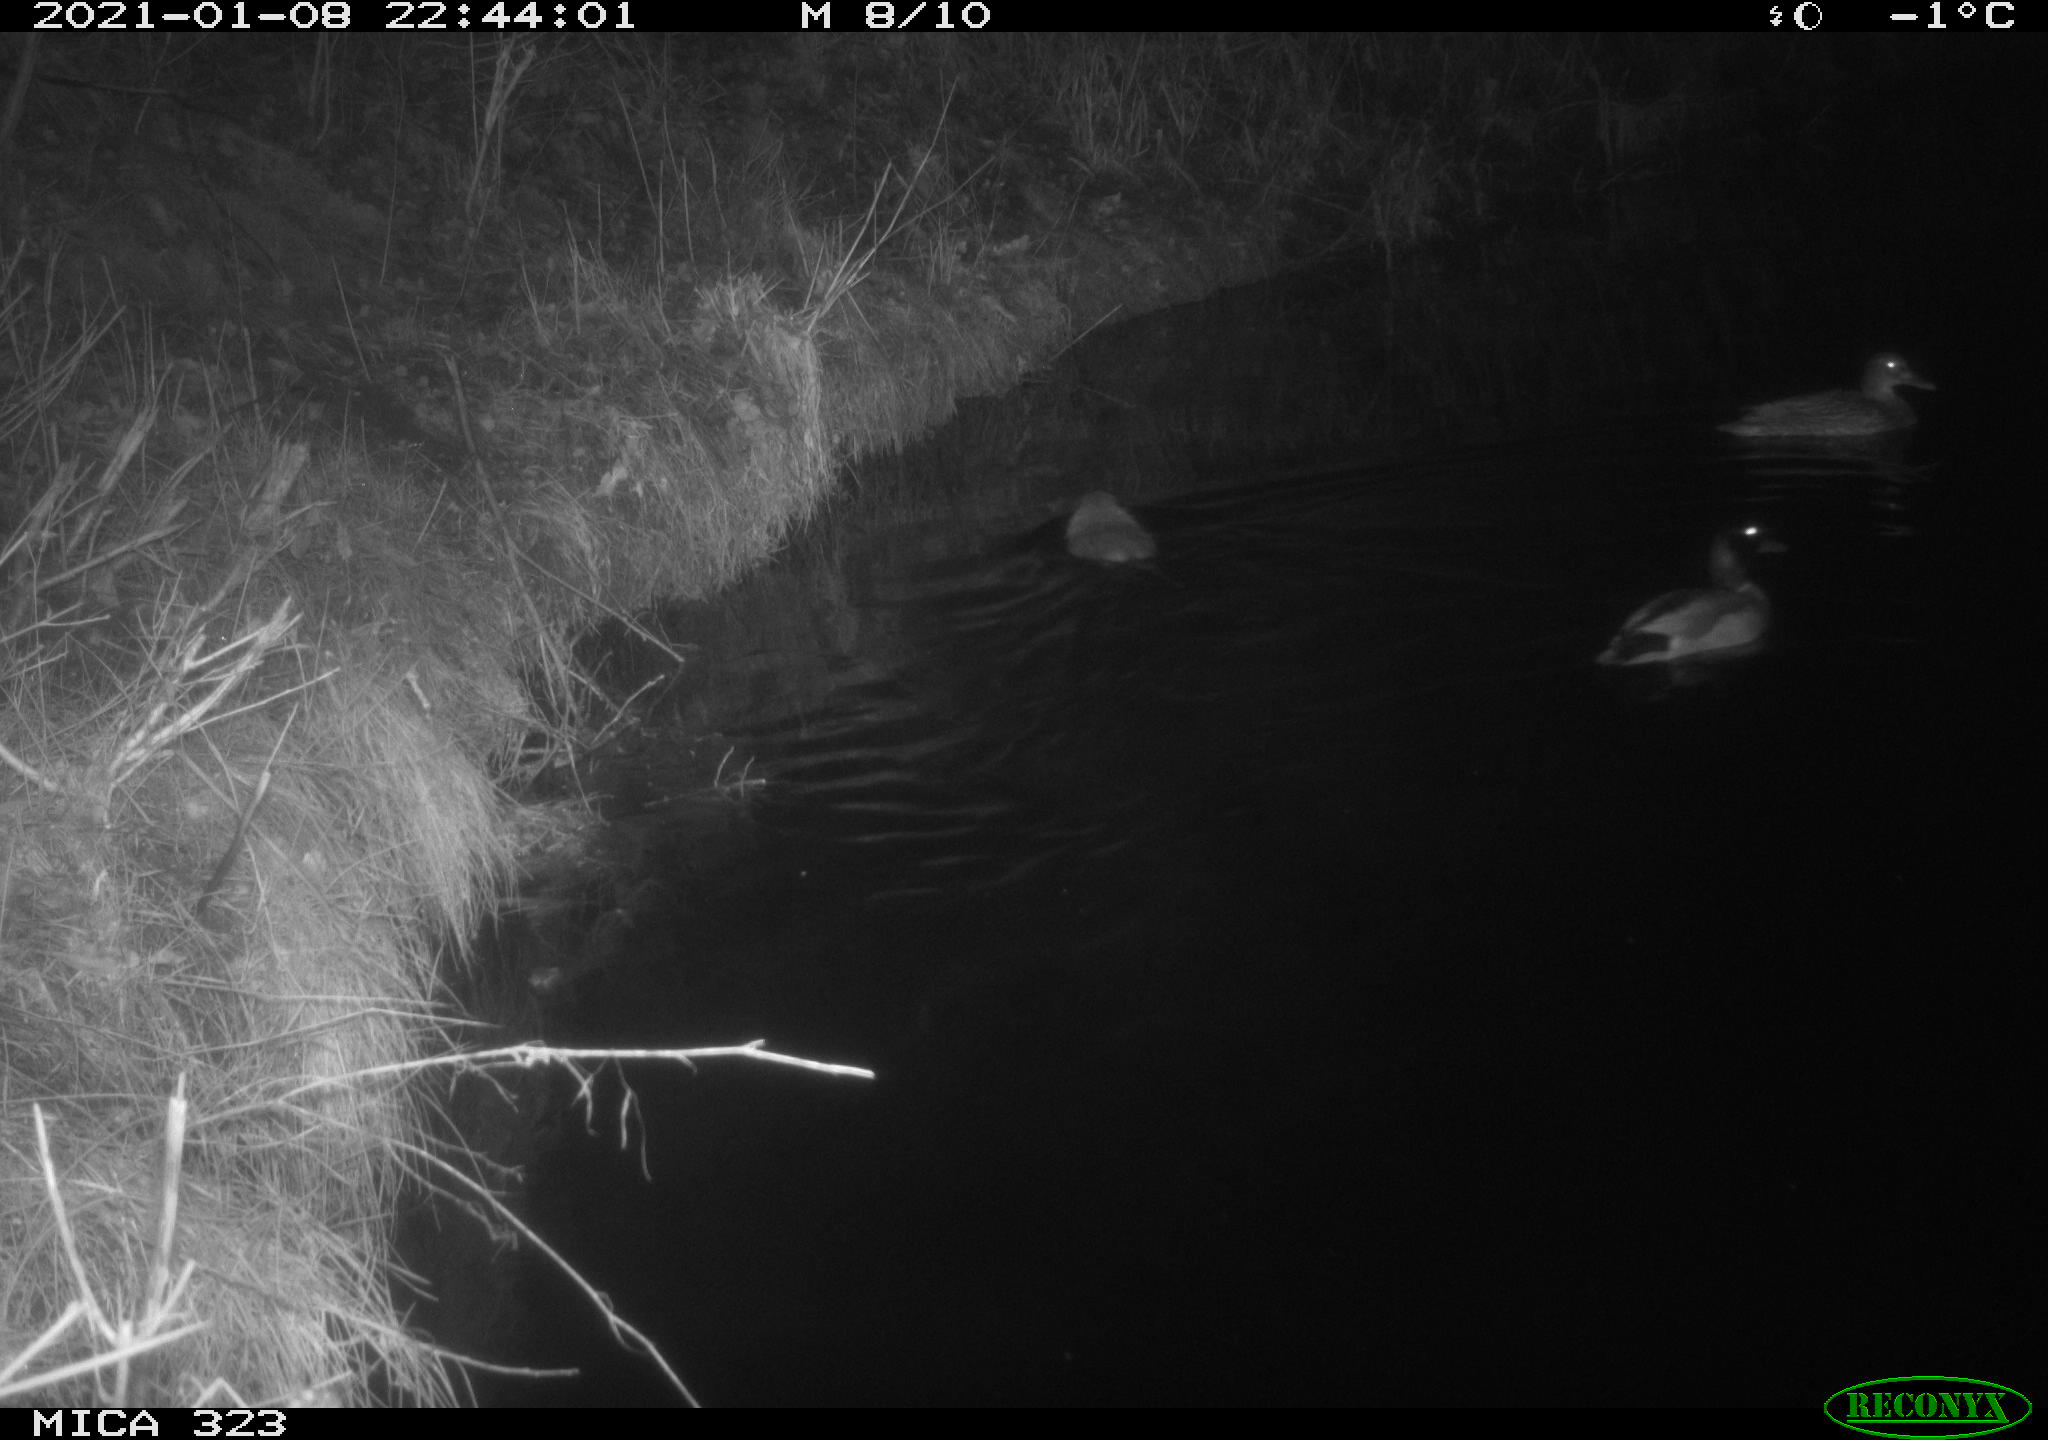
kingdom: Animalia
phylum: Chordata
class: Aves
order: Anseriformes
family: Anatidae
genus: Anas
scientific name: Anas platyrhynchos
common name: Mallard
